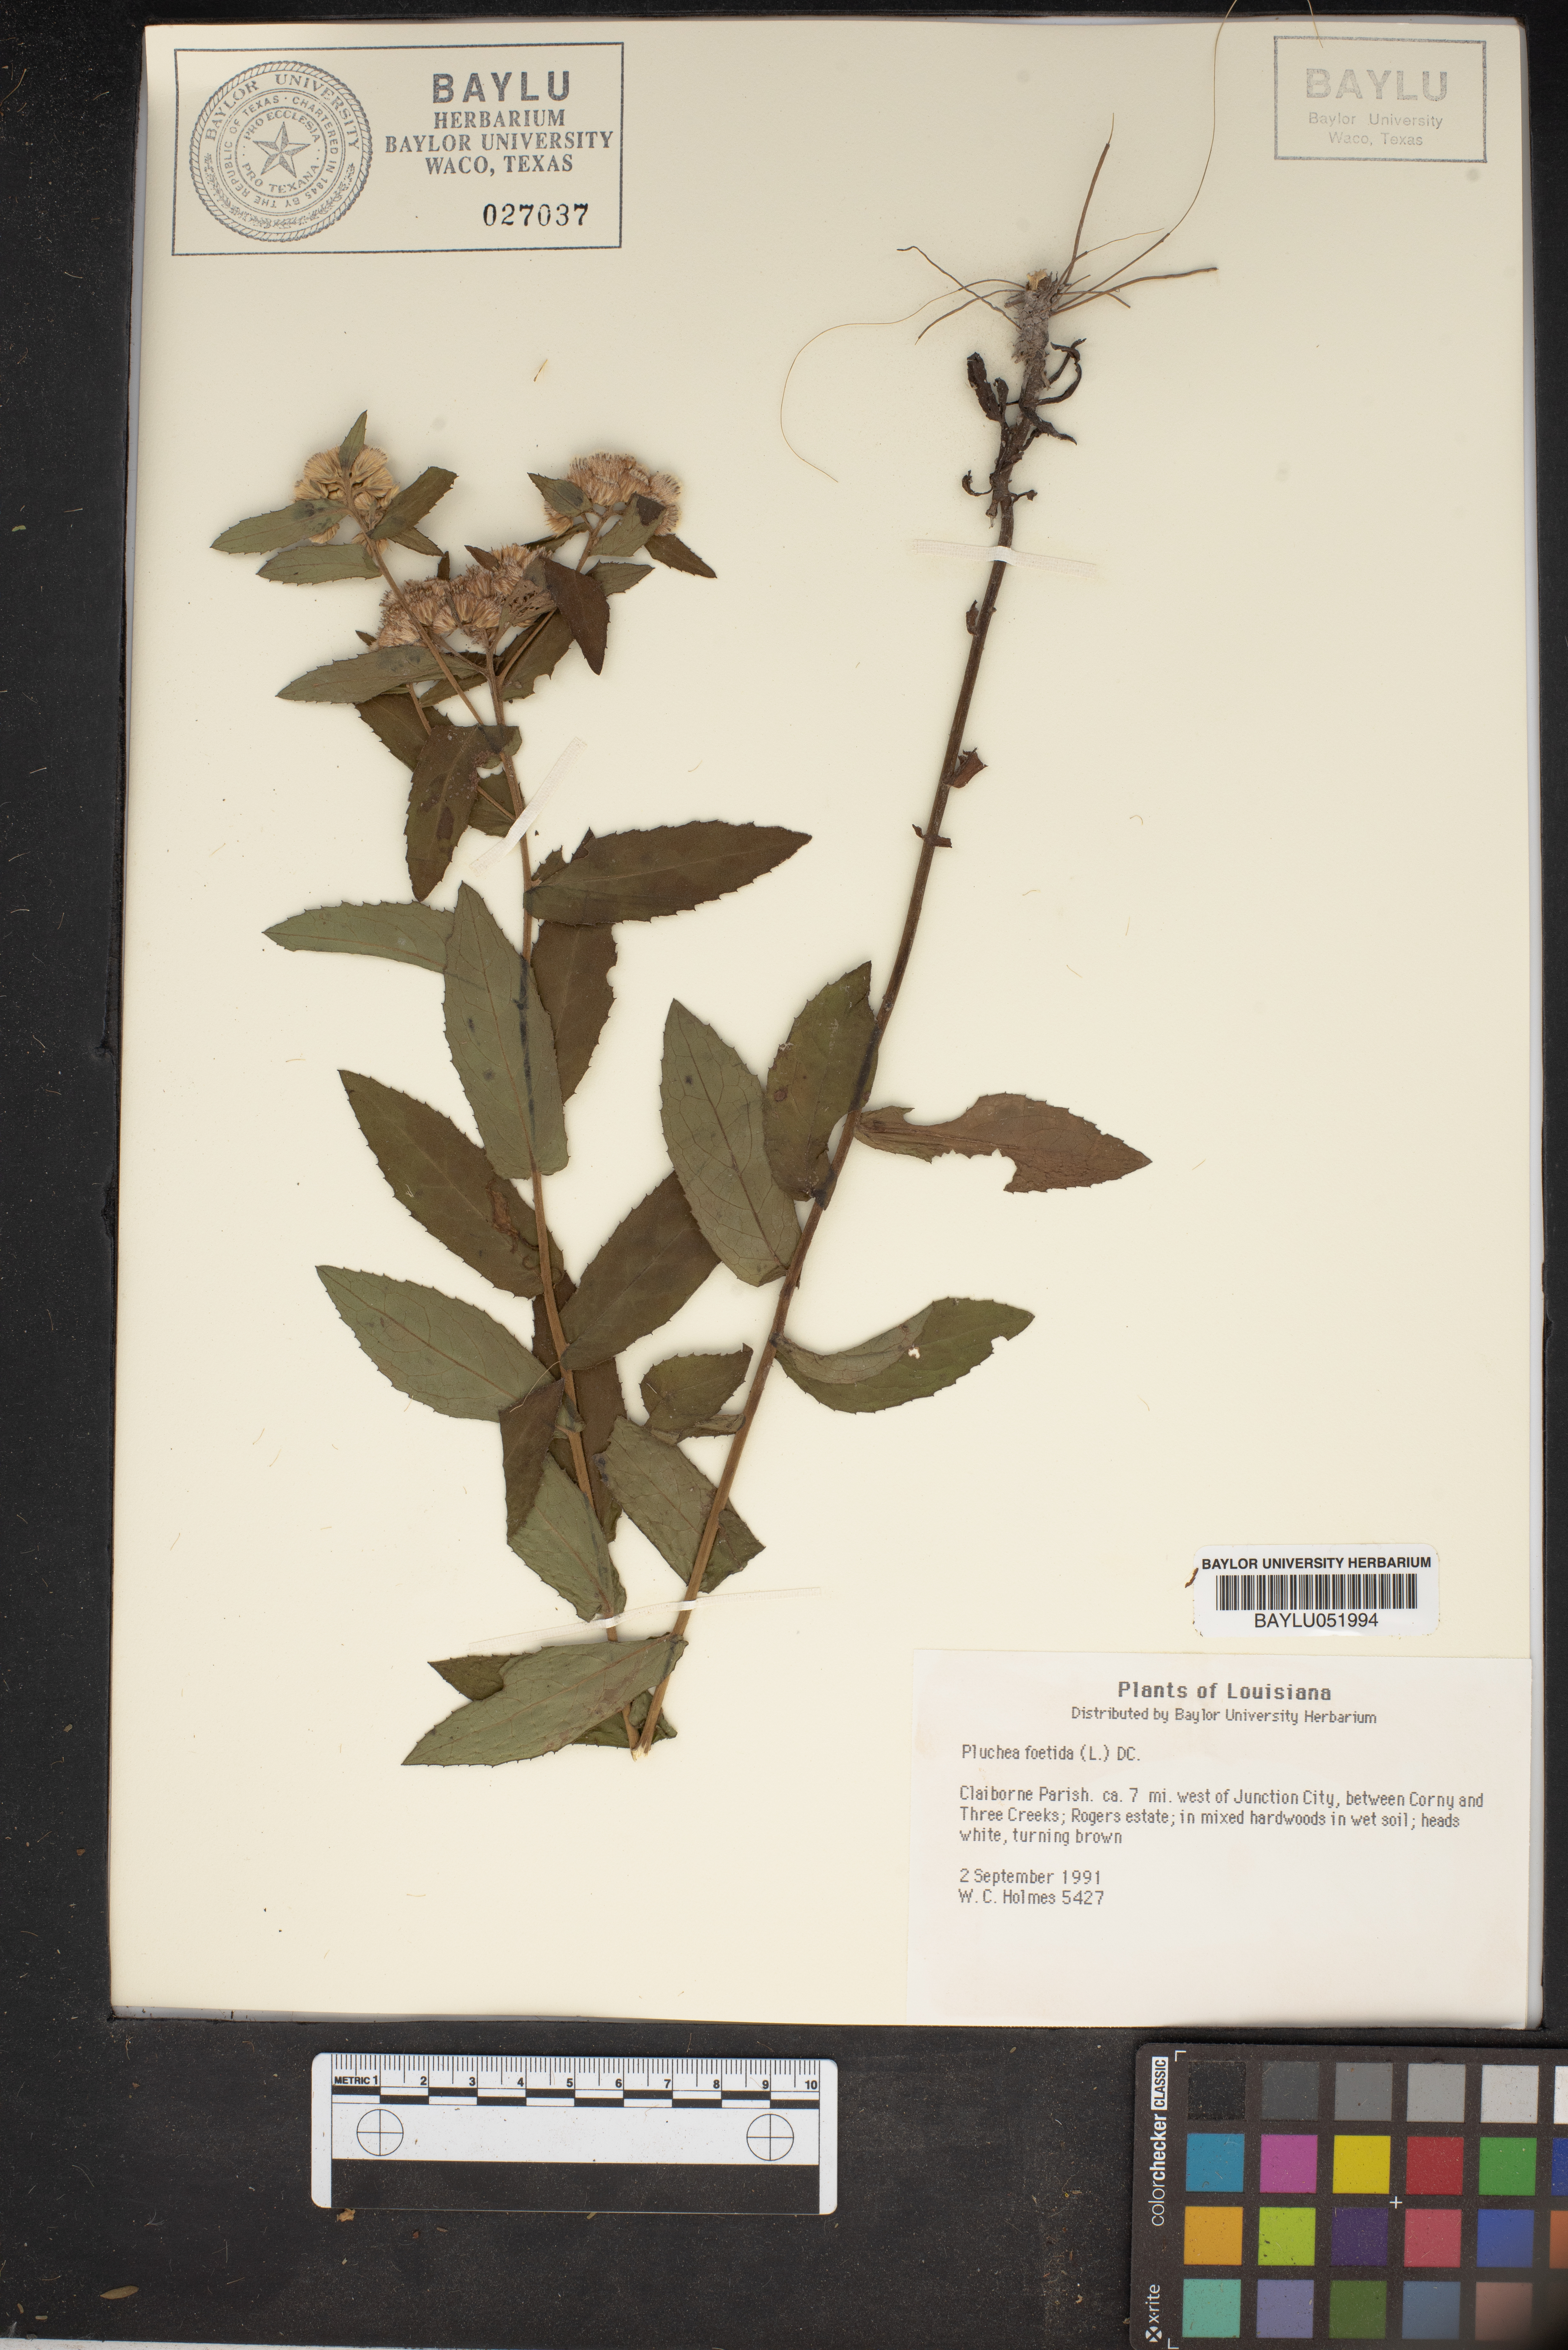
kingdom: Plantae
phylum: Tracheophyta
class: Magnoliopsida
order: Asterales
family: Asteraceae
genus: Pluchea
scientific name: Pluchea foetida
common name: Stinking camphorweed
